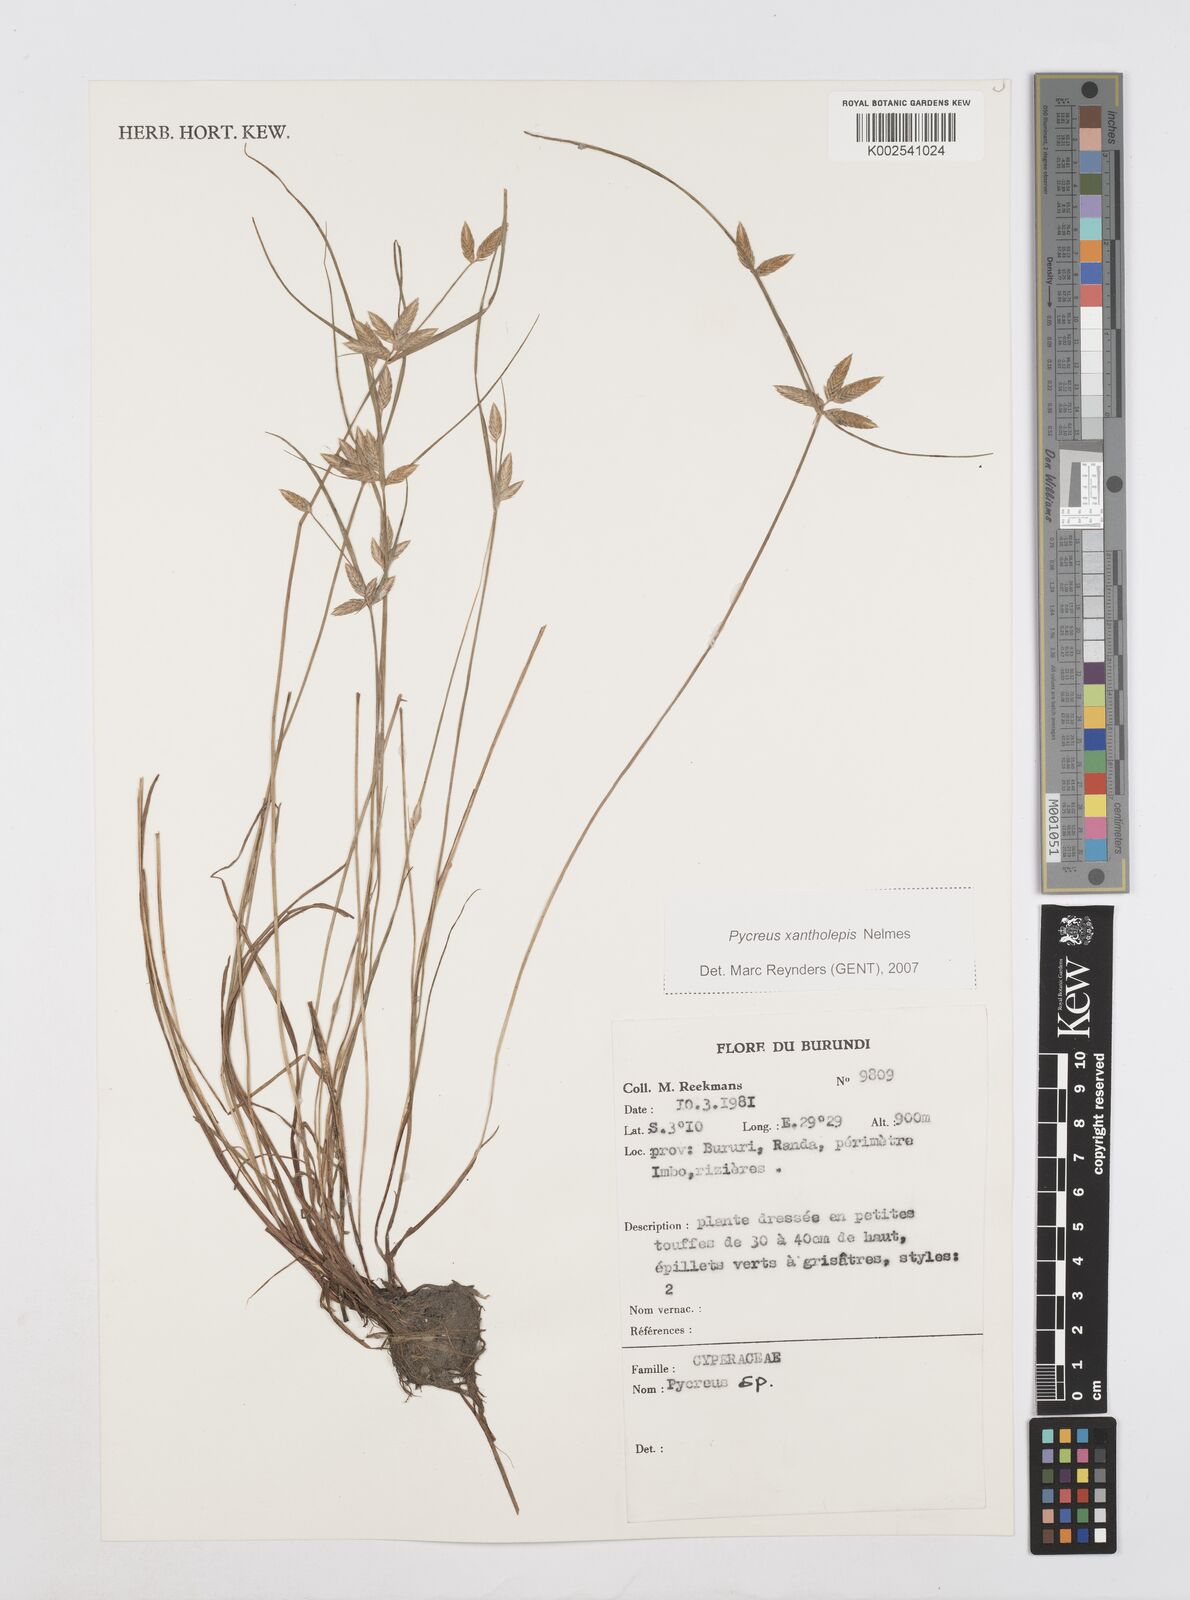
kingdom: Plantae
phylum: Tracheophyta
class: Liliopsida
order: Poales
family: Cyperaceae
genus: Cyperus
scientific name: Cyperus
